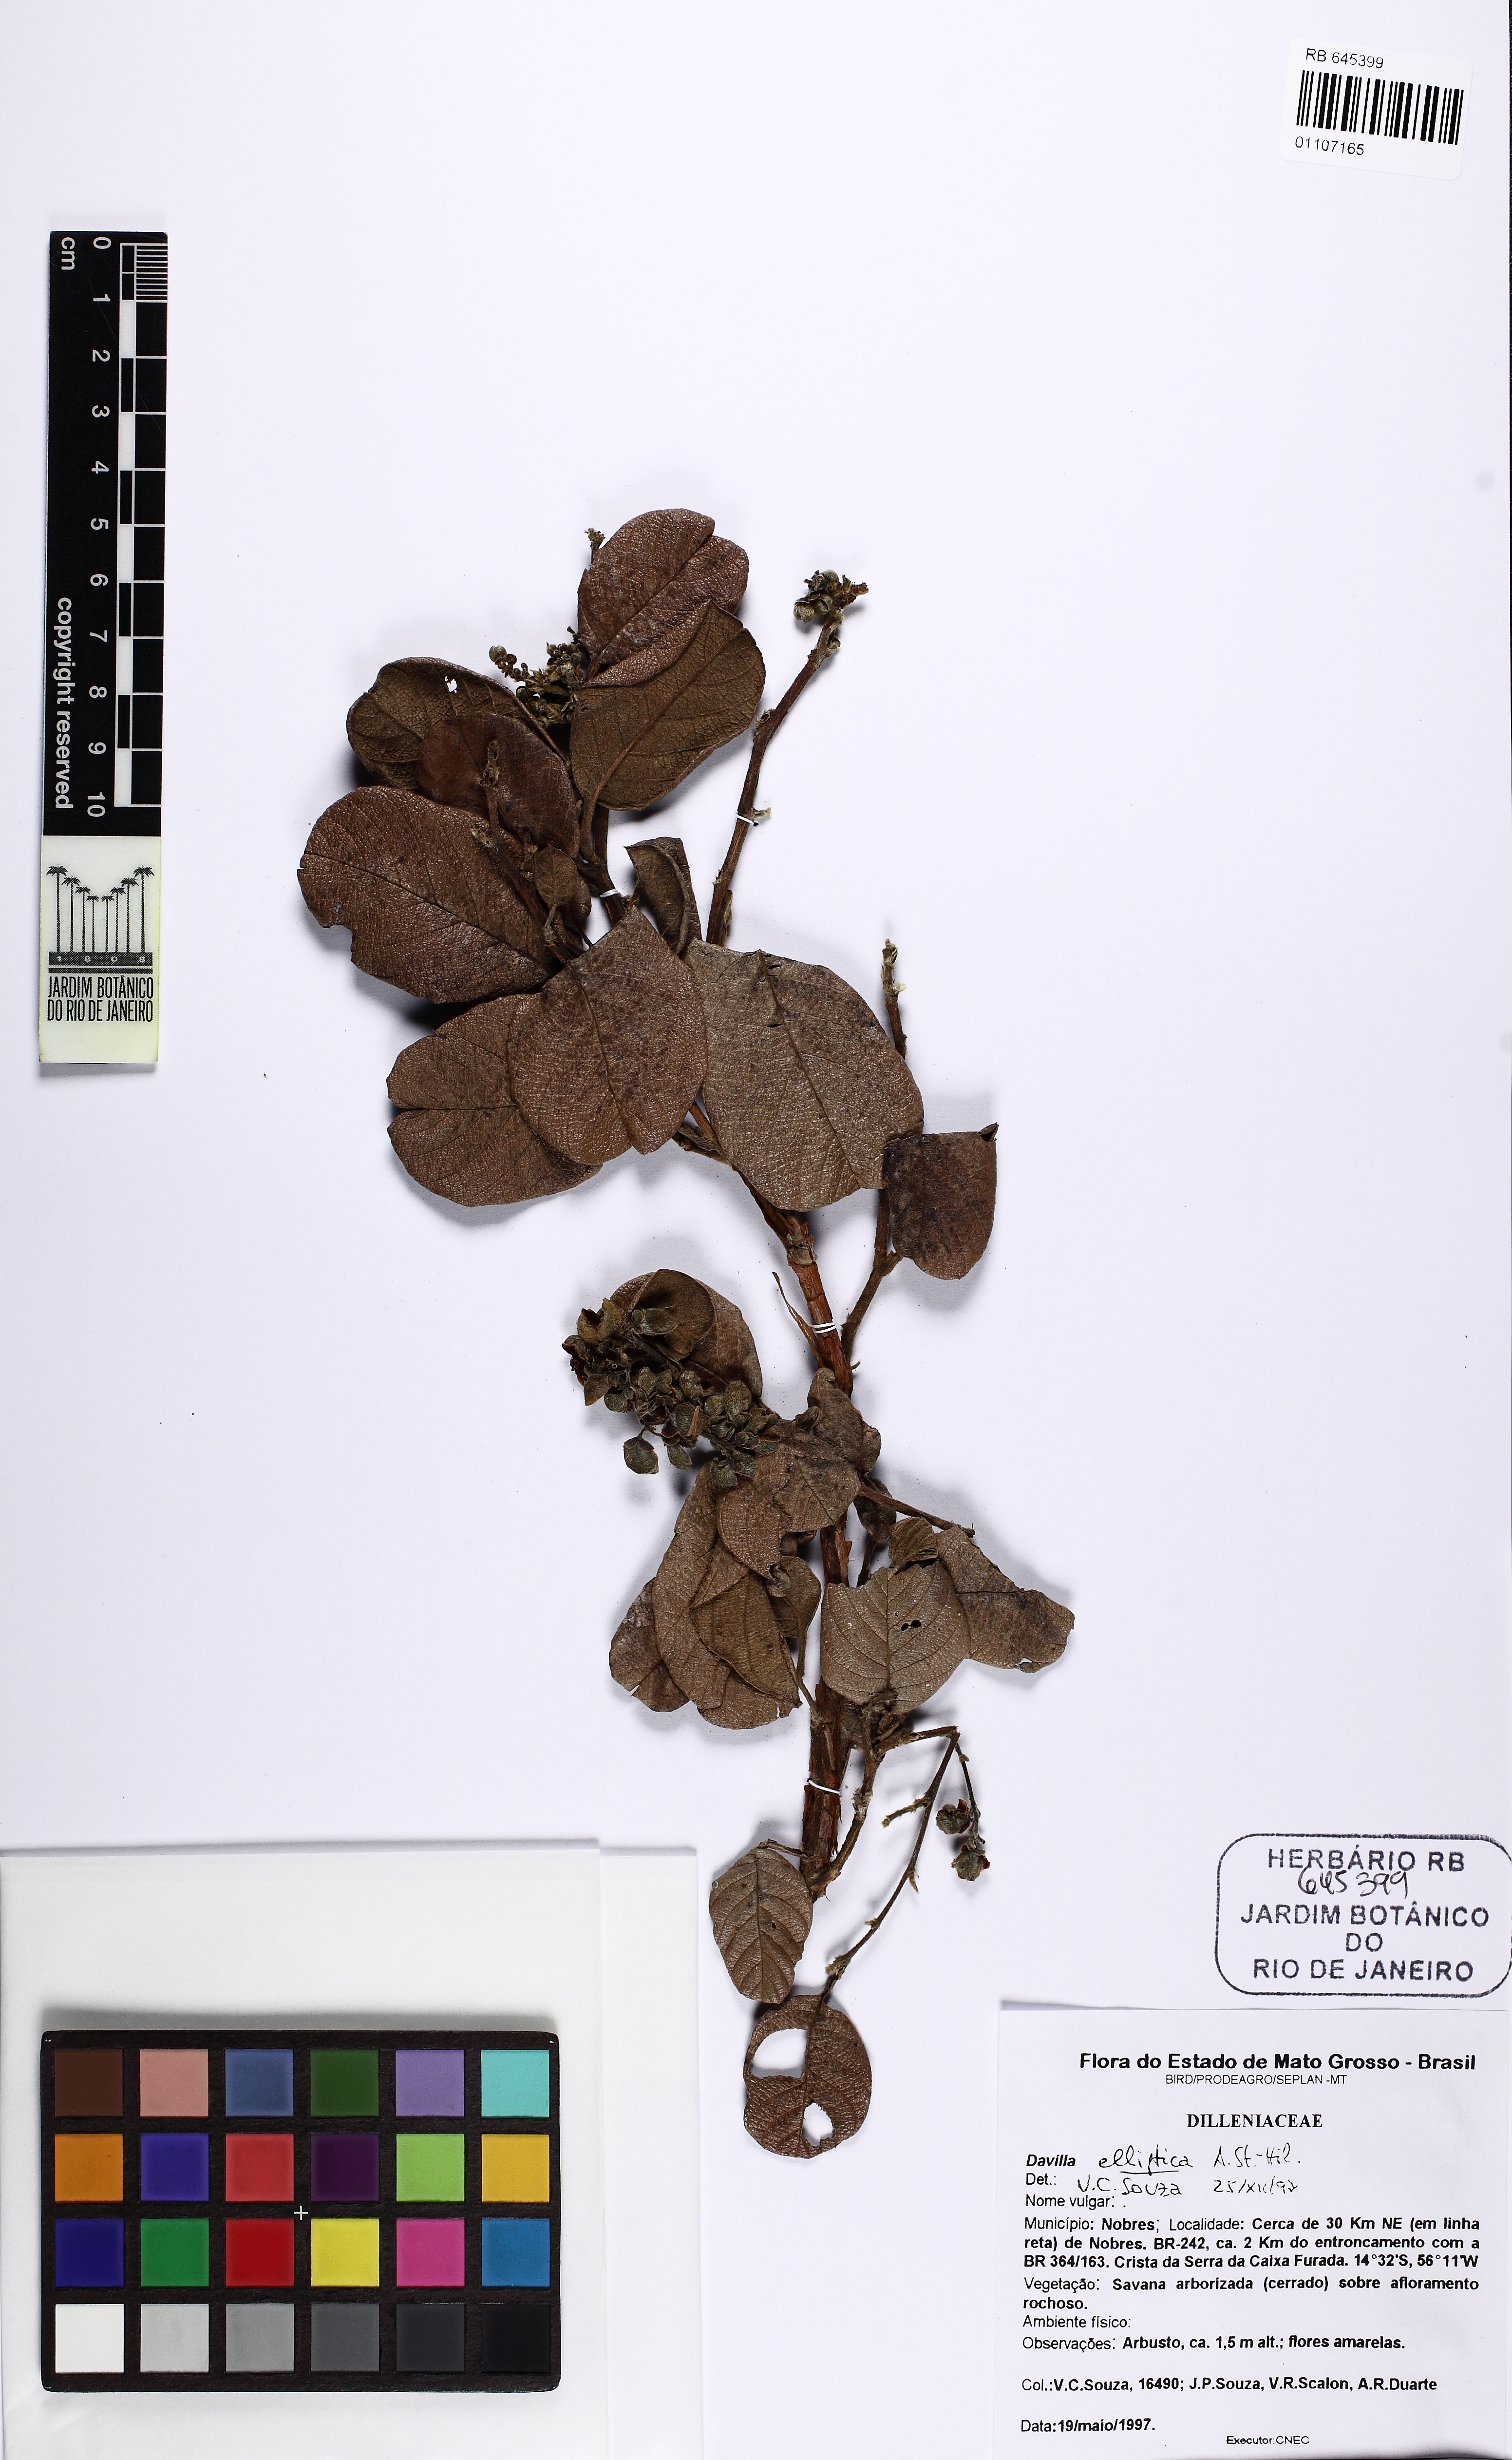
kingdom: Plantae
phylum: Tracheophyta
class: Magnoliopsida
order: Dilleniales
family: Dilleniaceae
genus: Davilla
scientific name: Davilla elliptica
